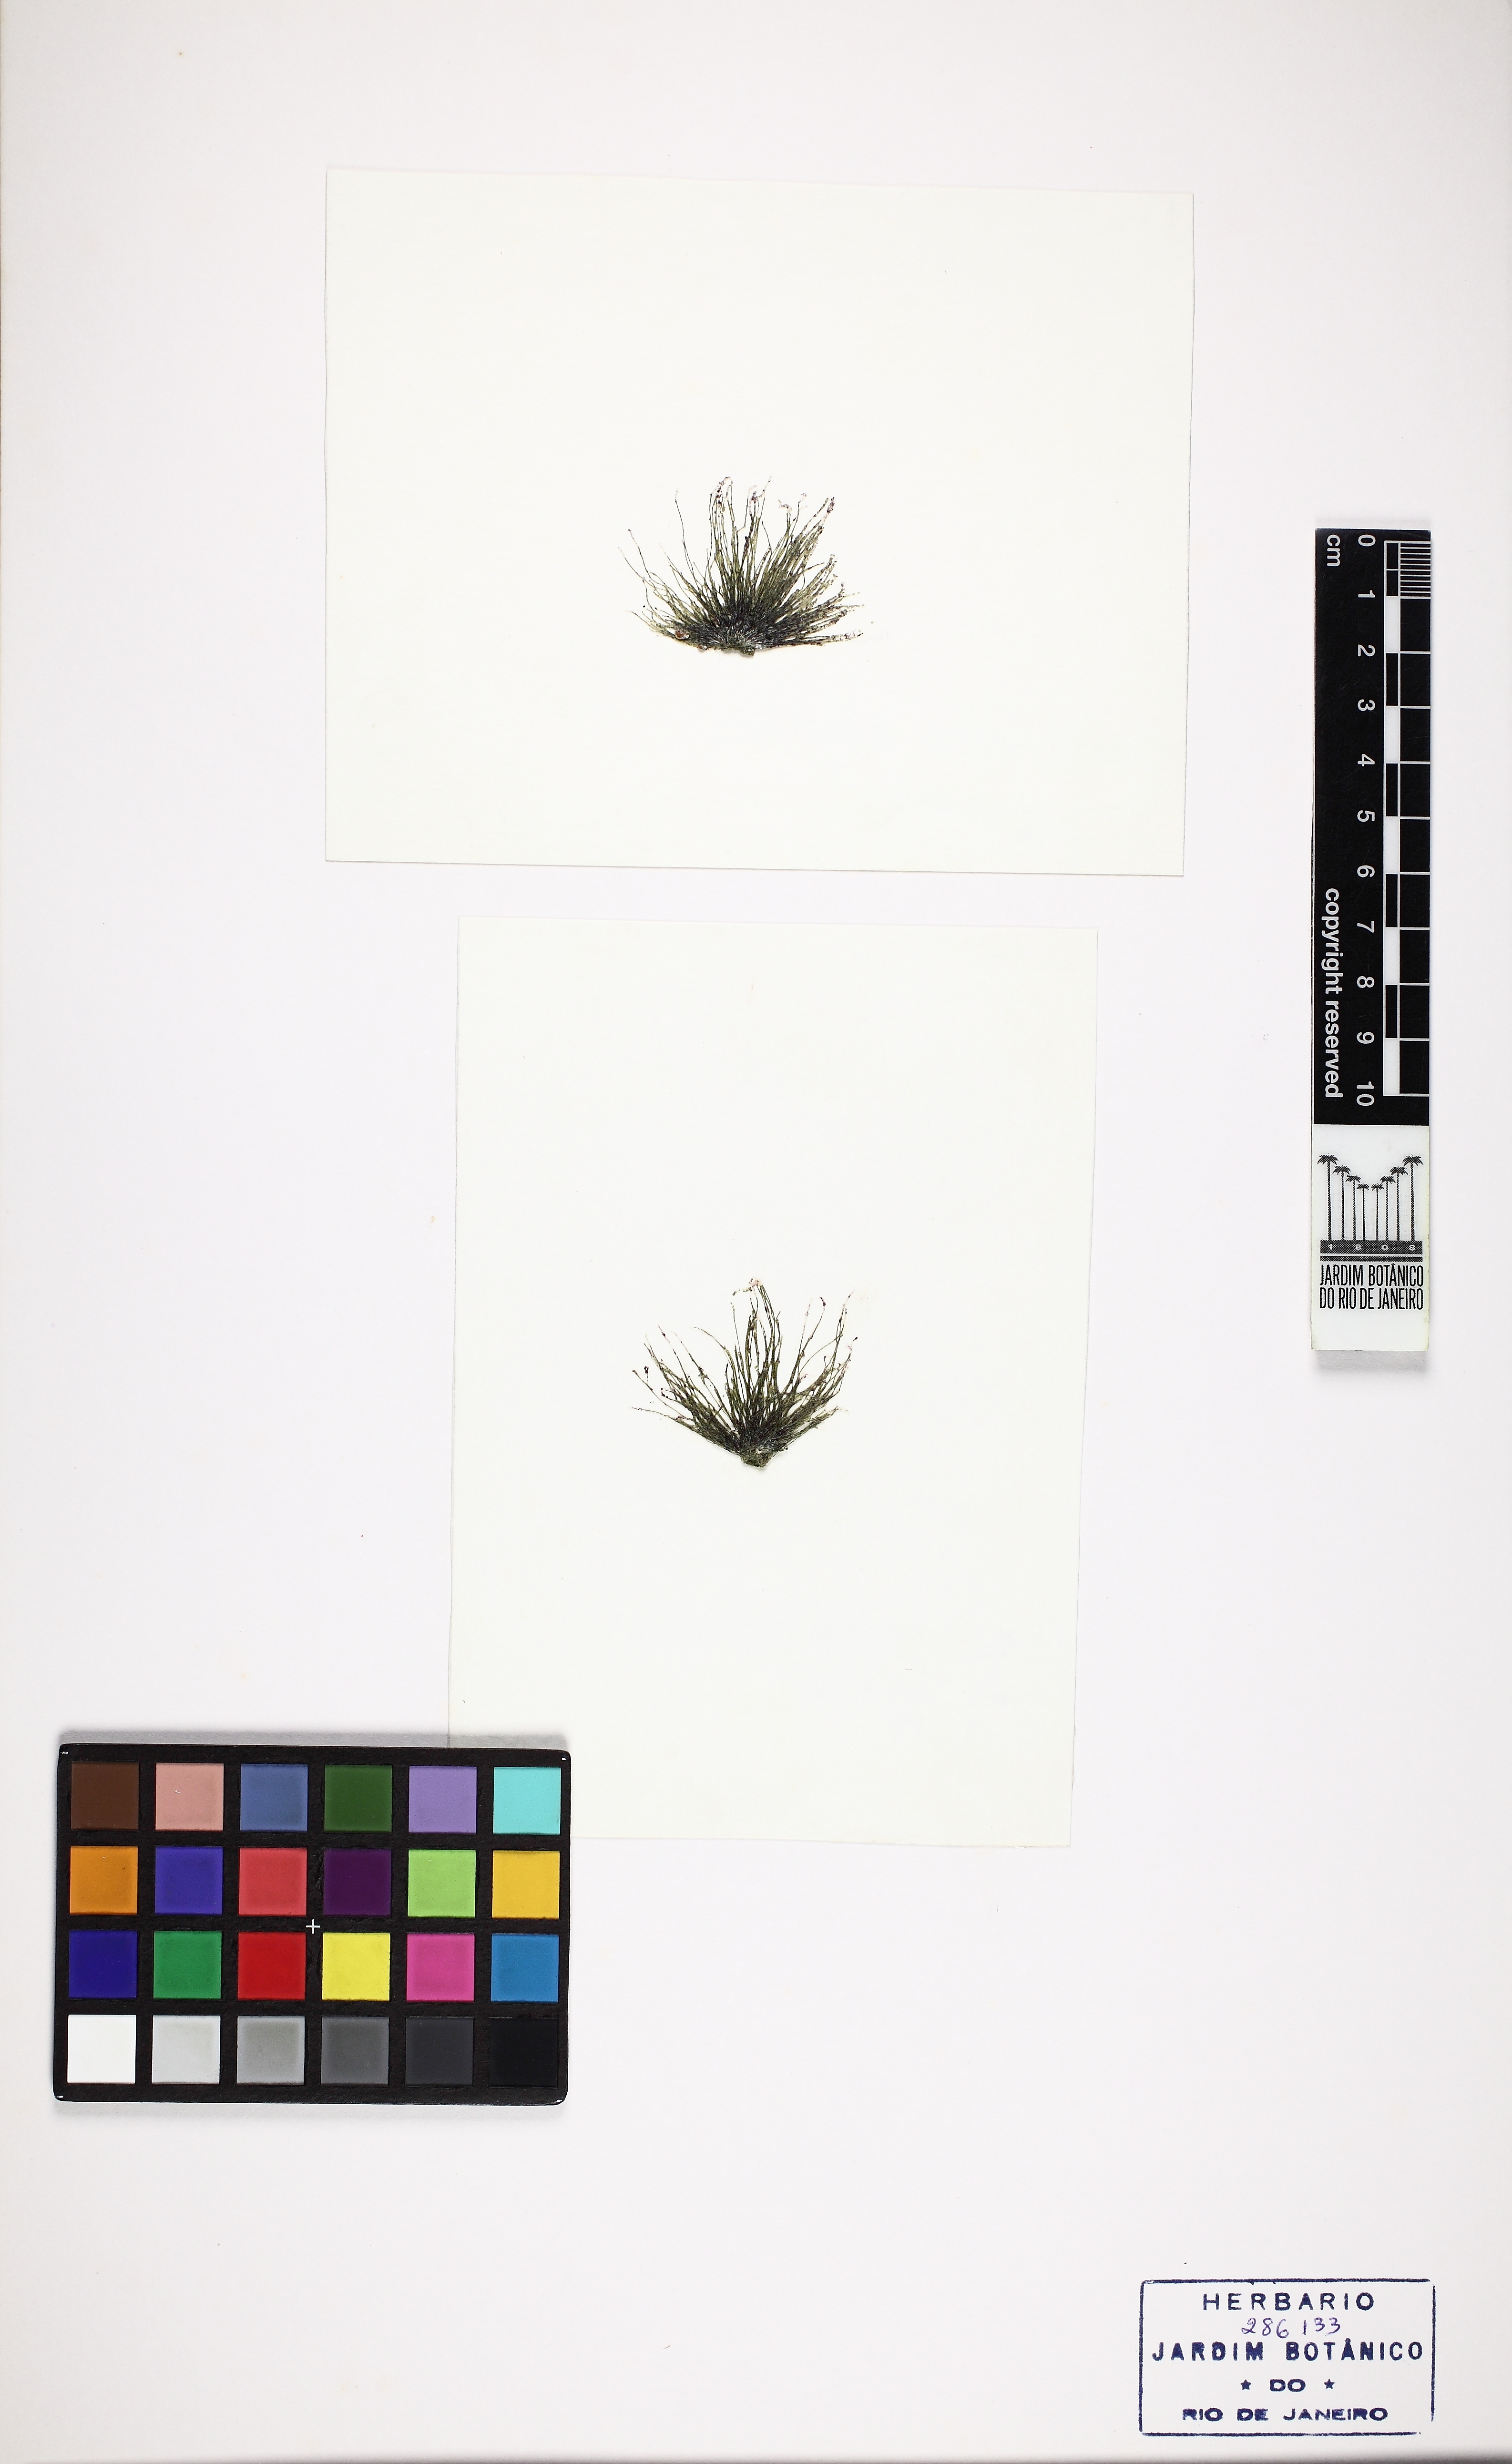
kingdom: Plantae
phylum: Chlorophyta
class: Ulvophyceae
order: Cladophorales
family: Cladophoraceae
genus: Chaetomorpha
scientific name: Chaetomorpha antennina
